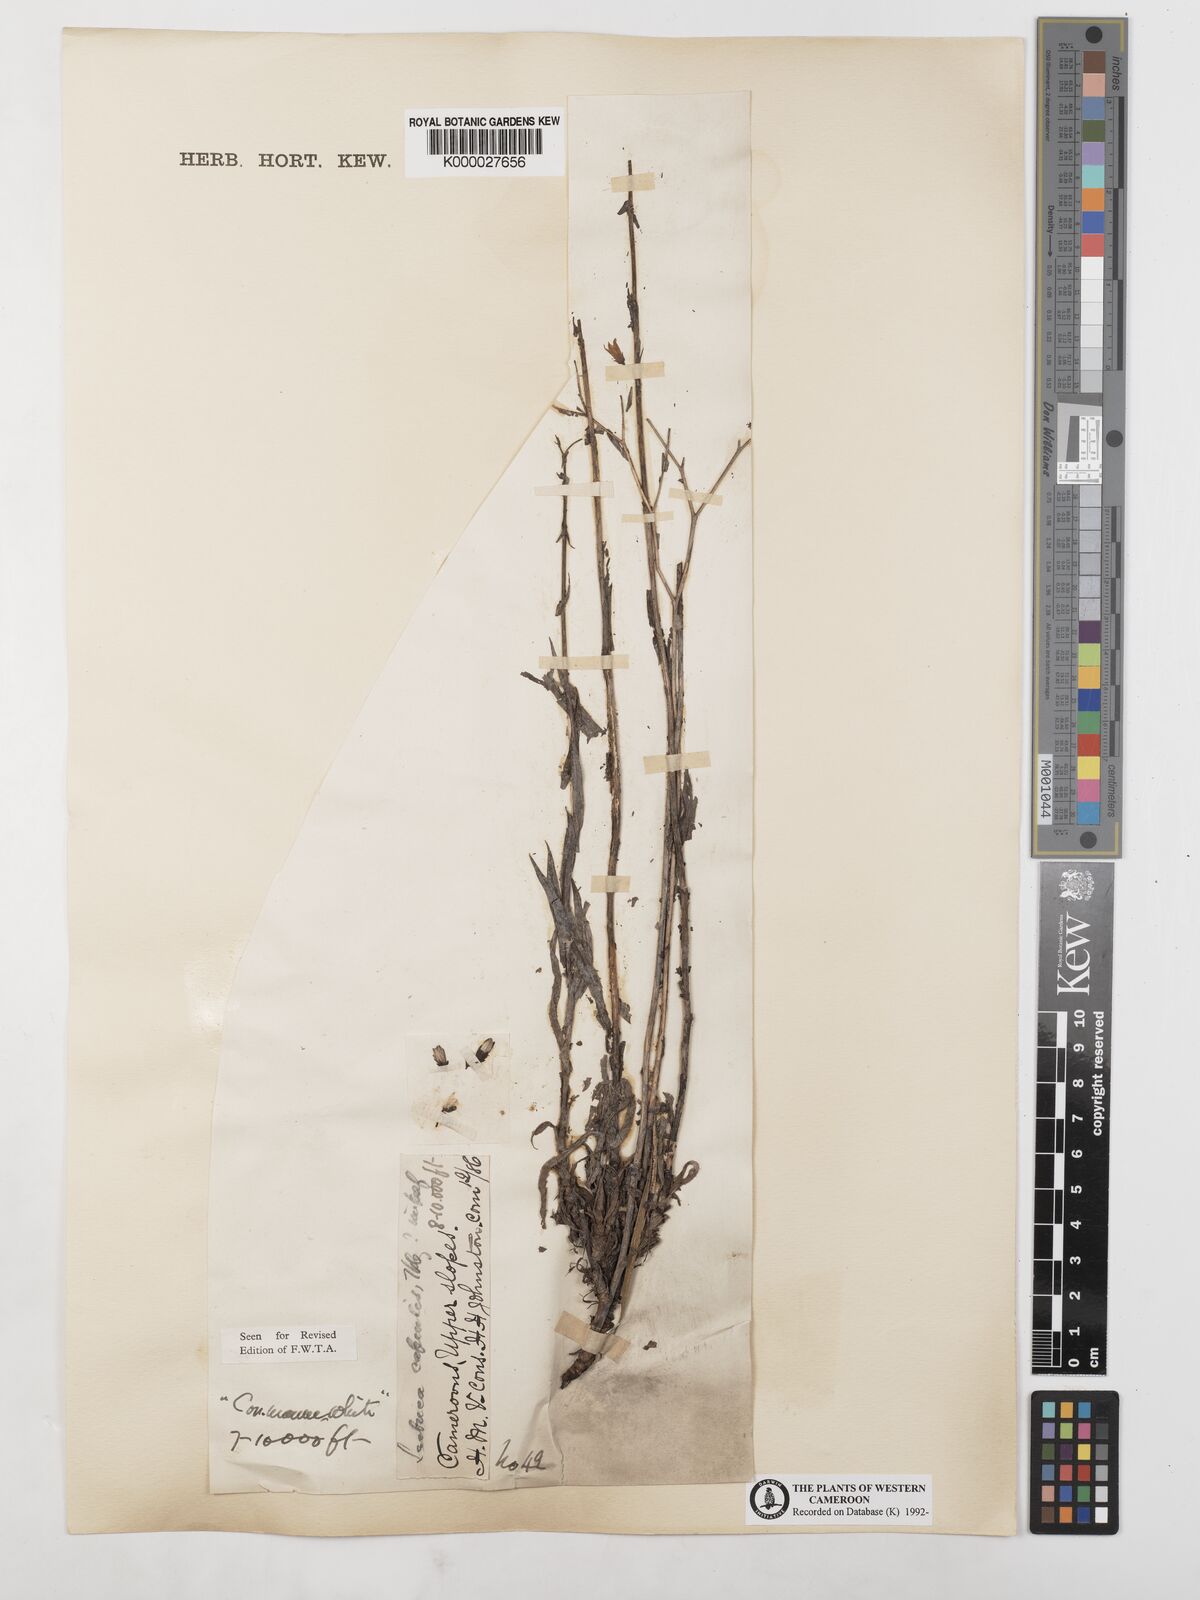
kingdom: Plantae
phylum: Tracheophyta
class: Magnoliopsida
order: Asterales
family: Asteraceae
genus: Lactuca
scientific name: Lactuca inermis
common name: Wild lettuce
